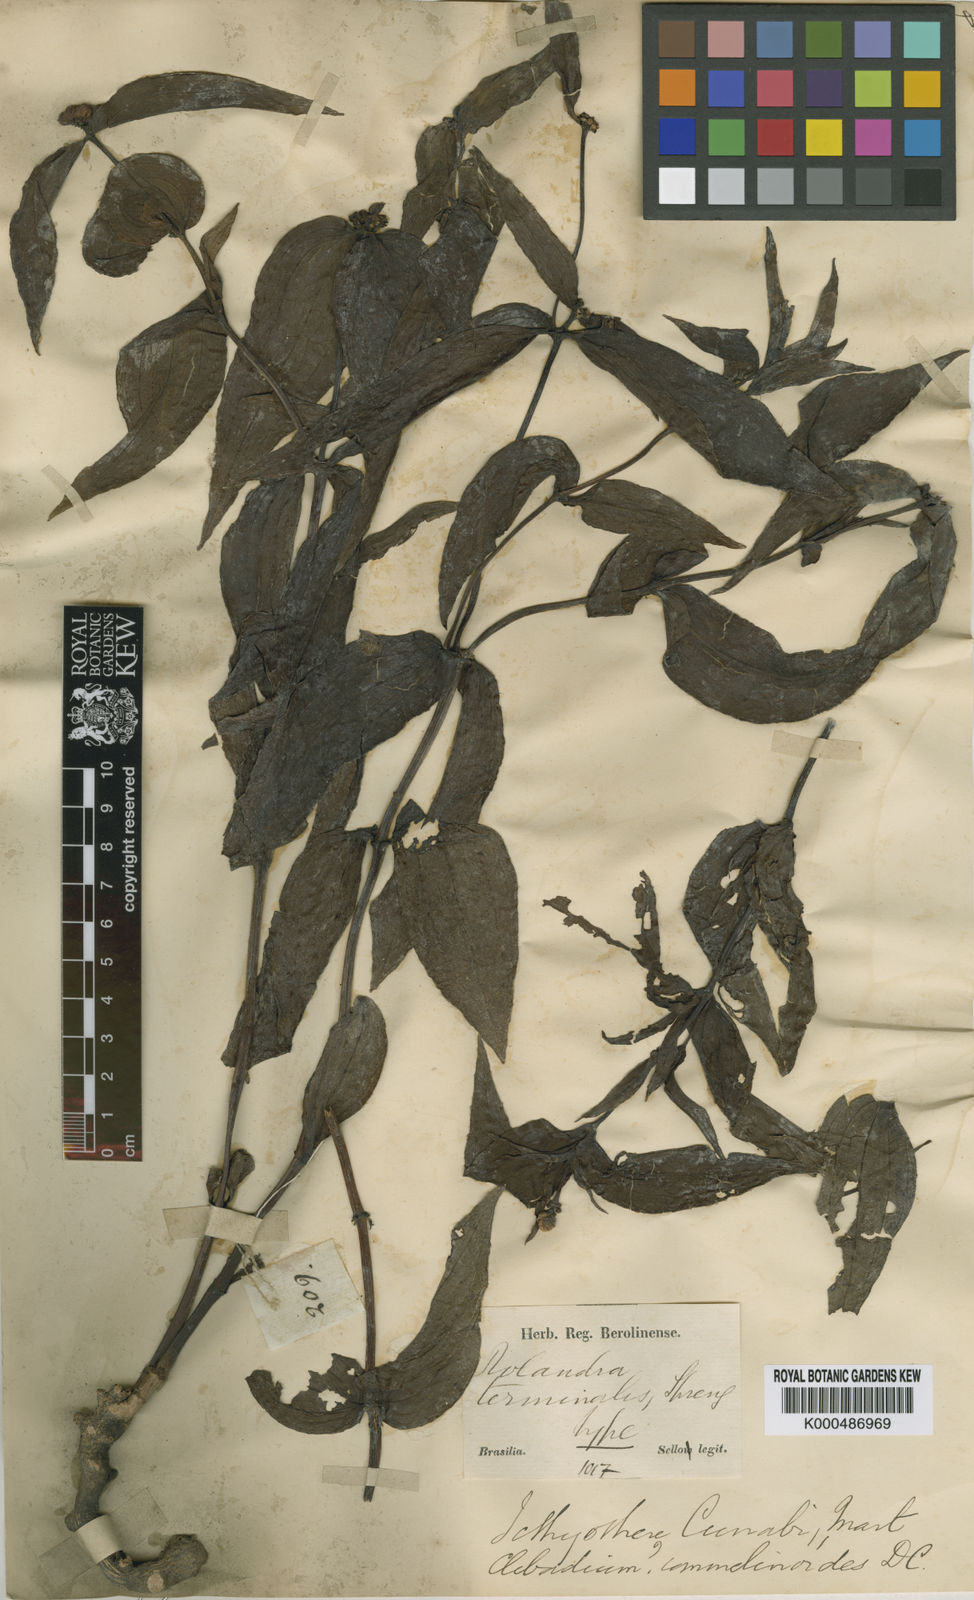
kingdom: Plantae
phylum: Tracheophyta
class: Magnoliopsida
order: Asterales
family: Asteraceae
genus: Ichthyothere
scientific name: Ichthyothere terminalis
